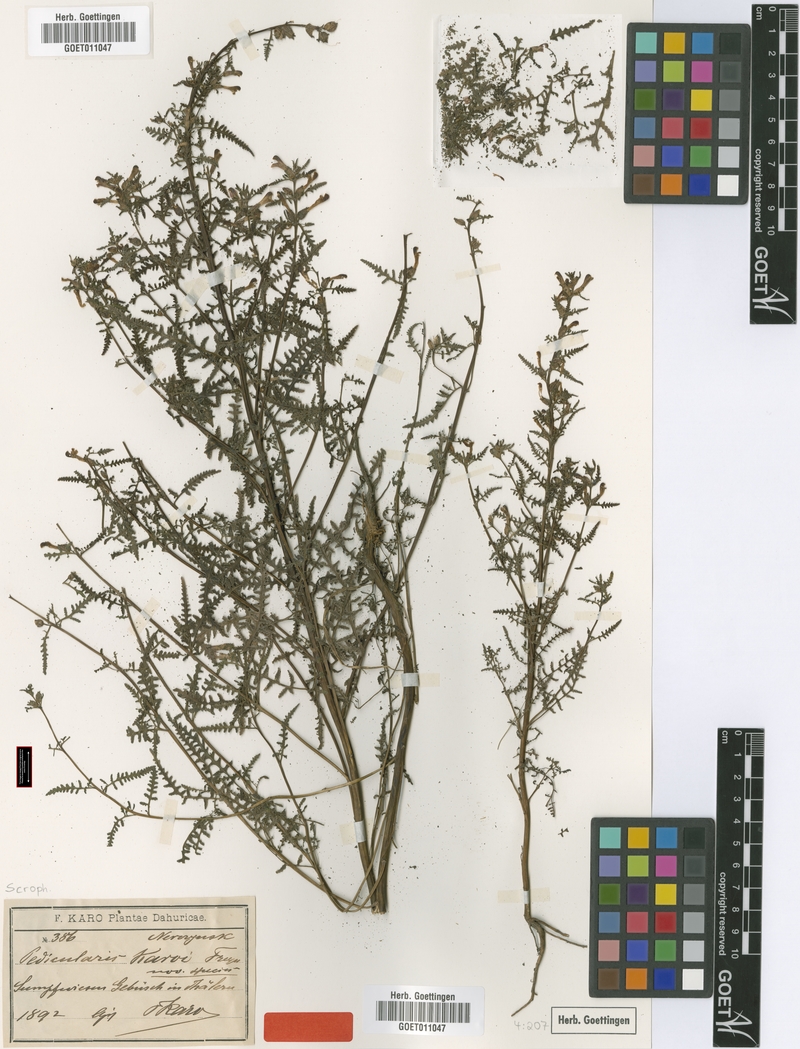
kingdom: Plantae
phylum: Tracheophyta
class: Magnoliopsida
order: Lamiales
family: Orobanchaceae
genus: Pedicularis
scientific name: Pedicularis karoi
